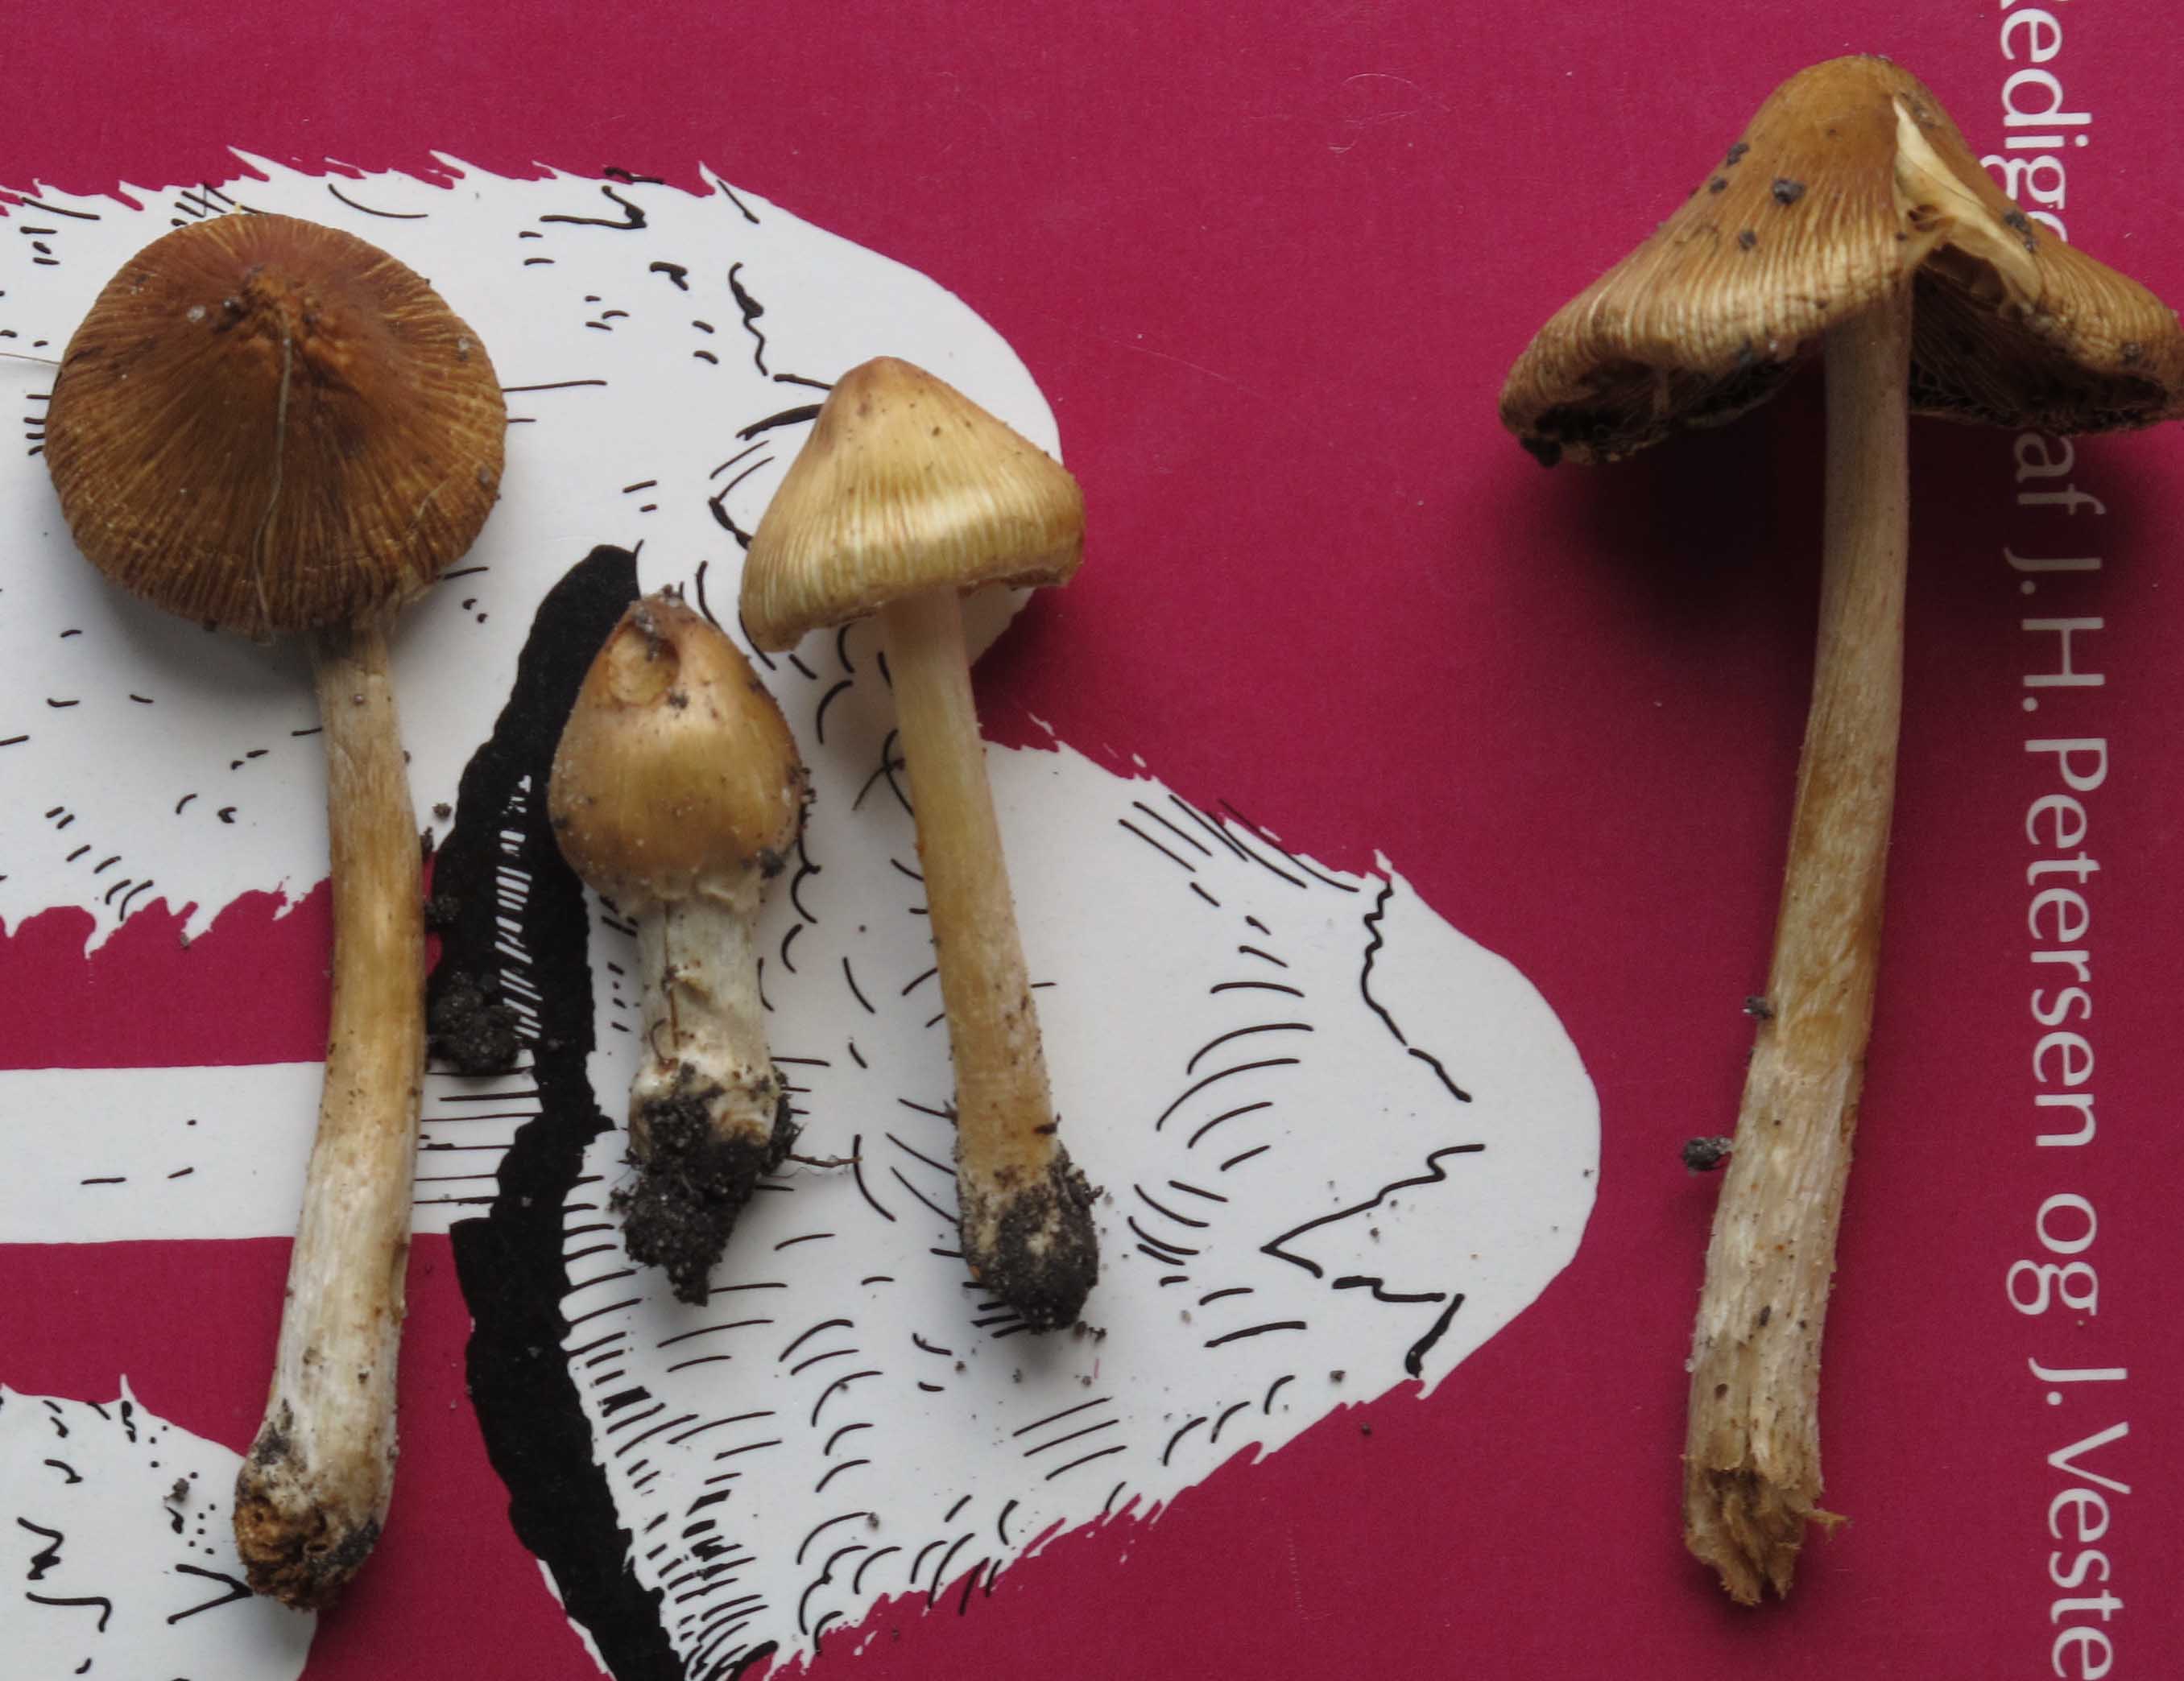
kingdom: Fungi
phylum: Basidiomycota
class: Agaricomycetes
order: Agaricales
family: Inocybaceae
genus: Pseudosperma
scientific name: Pseudosperma rimosum
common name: gulbladet trævlhat
